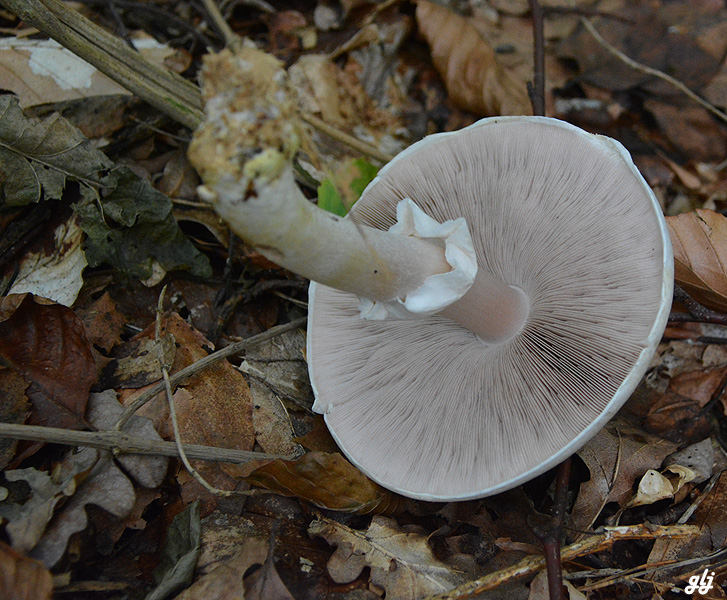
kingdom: Fungi
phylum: Basidiomycota
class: Agaricomycetes
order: Agaricales
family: Agaricaceae
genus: Agaricus
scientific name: Agaricus
